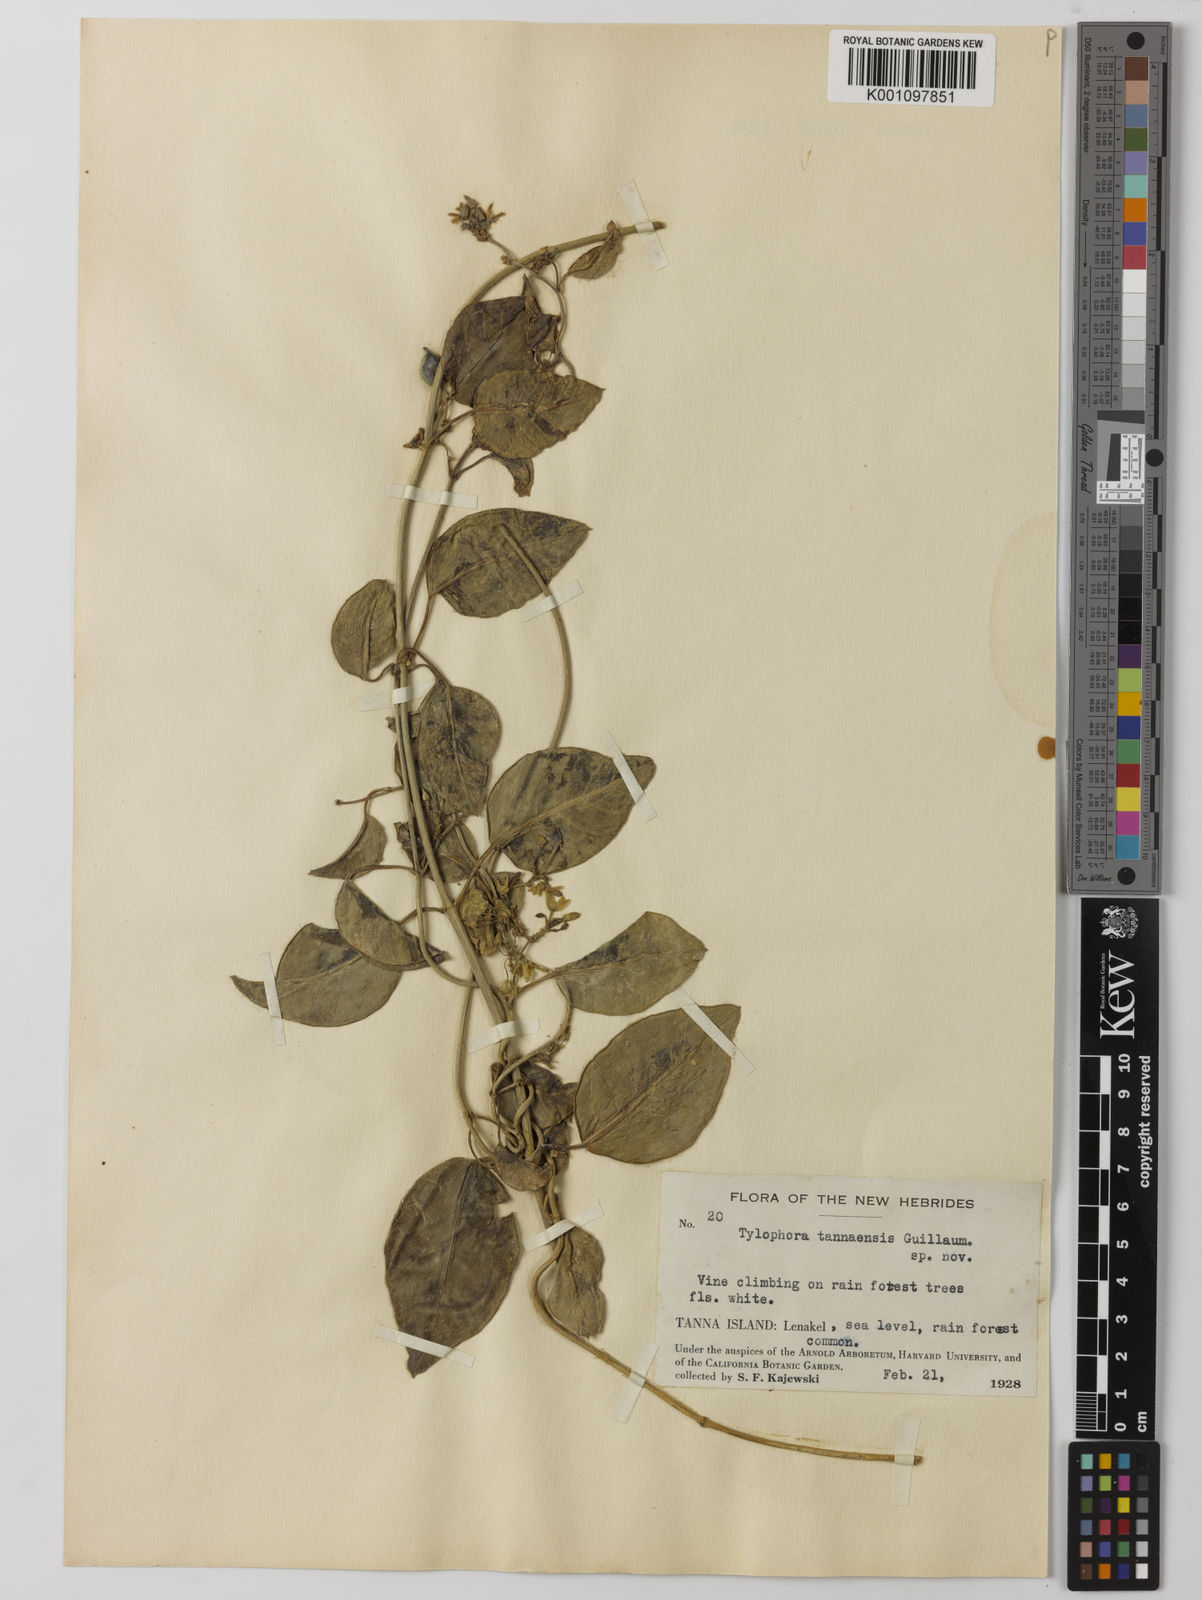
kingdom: Plantae
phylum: Tracheophyta
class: Magnoliopsida
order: Gentianales
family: Apocynaceae
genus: Vincetoxicum
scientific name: Vincetoxicum biglandulosum
